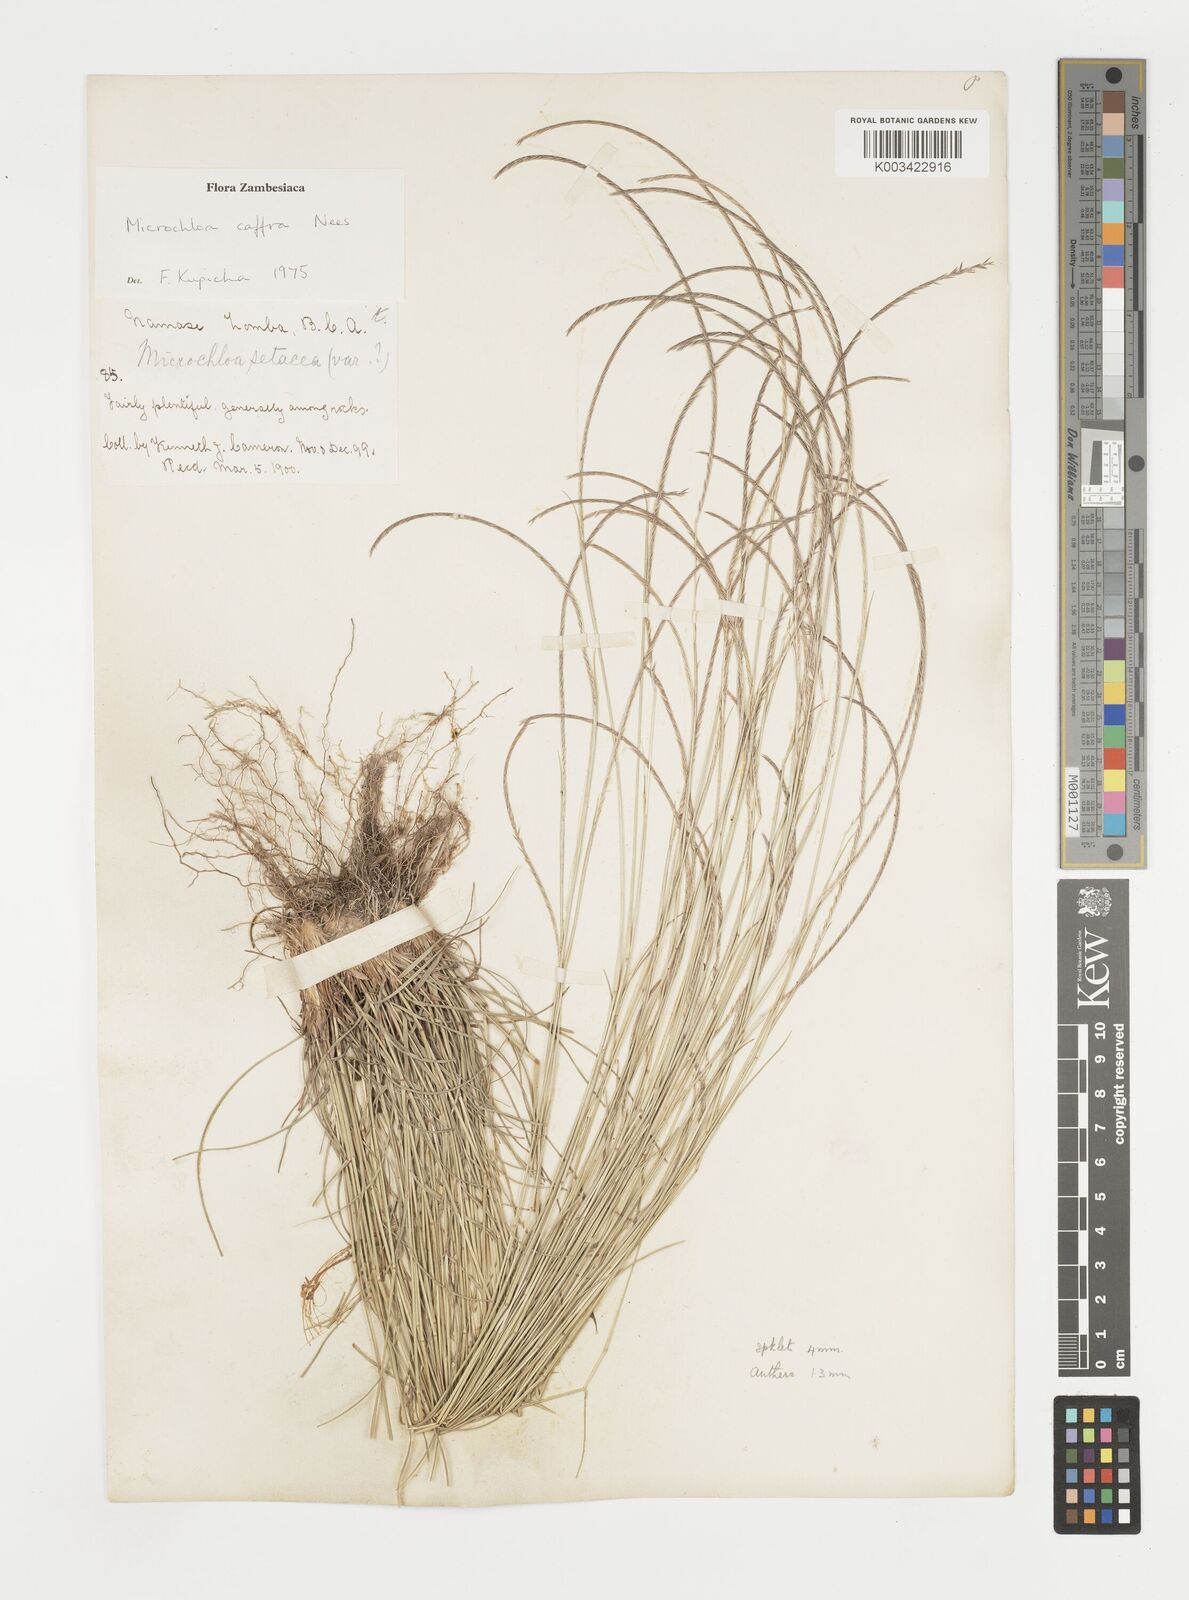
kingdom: Plantae
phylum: Tracheophyta
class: Liliopsida
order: Poales
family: Poaceae
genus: Microchloa
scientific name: Microchloa caffra
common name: Pincushion grass
